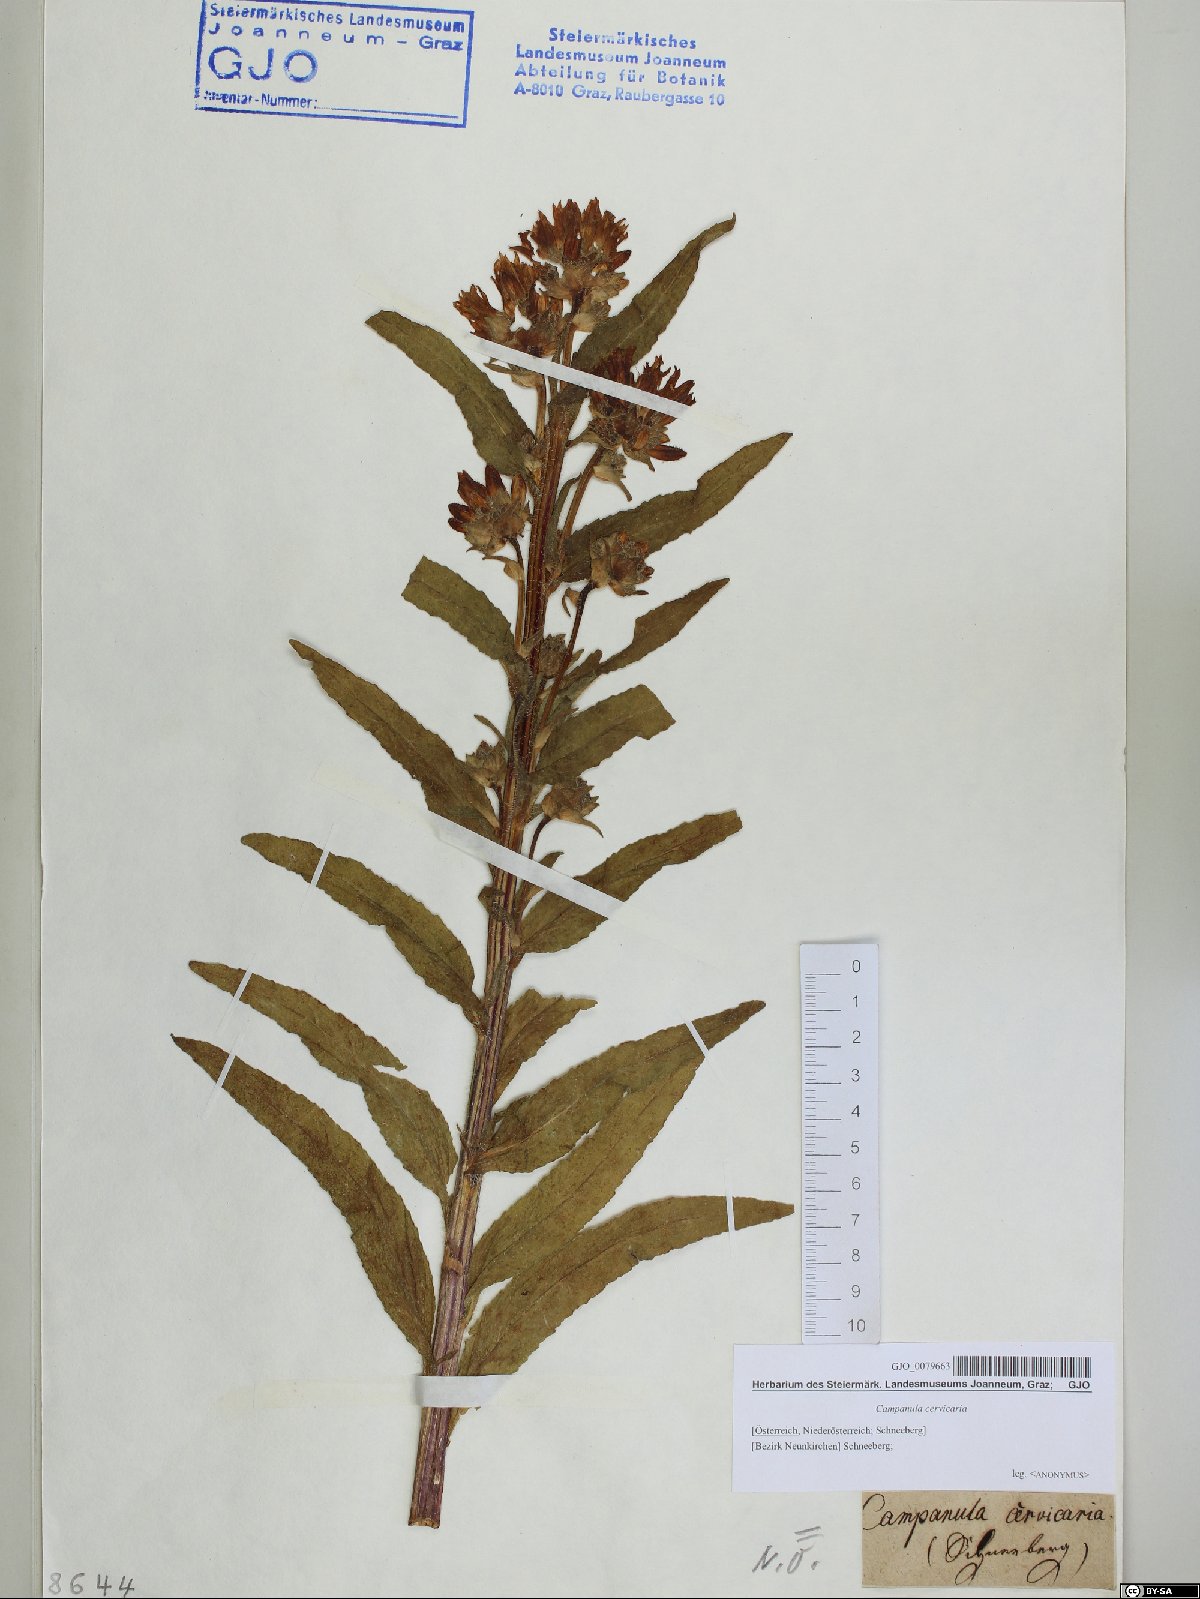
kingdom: Plantae
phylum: Tracheophyta
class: Magnoliopsida
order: Asterales
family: Campanulaceae
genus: Campanula
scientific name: Campanula cervicaria
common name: Bristly bellflower
